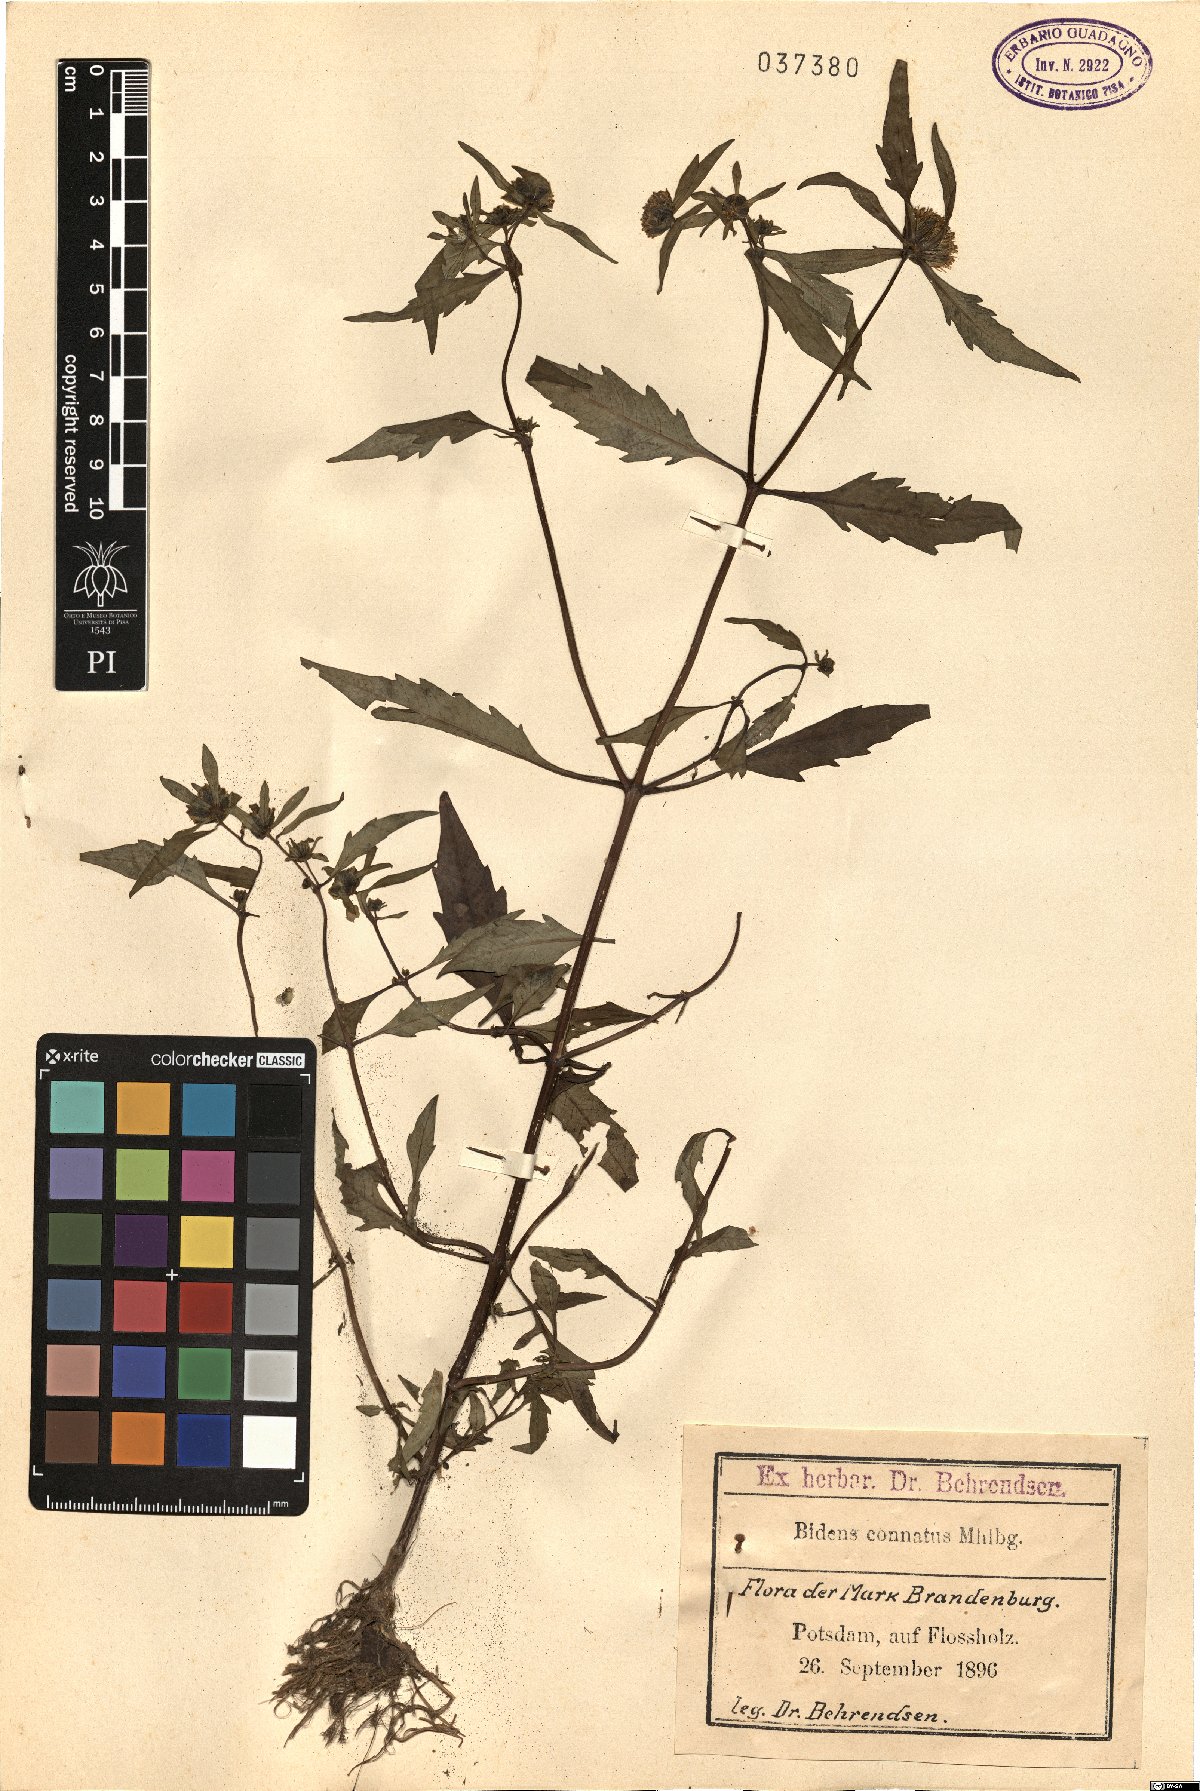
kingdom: Plantae
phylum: Tracheophyta
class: Magnoliopsida
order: Asterales
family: Asteraceae
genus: Bidens
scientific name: Bidens connata
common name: London bur-marigold
